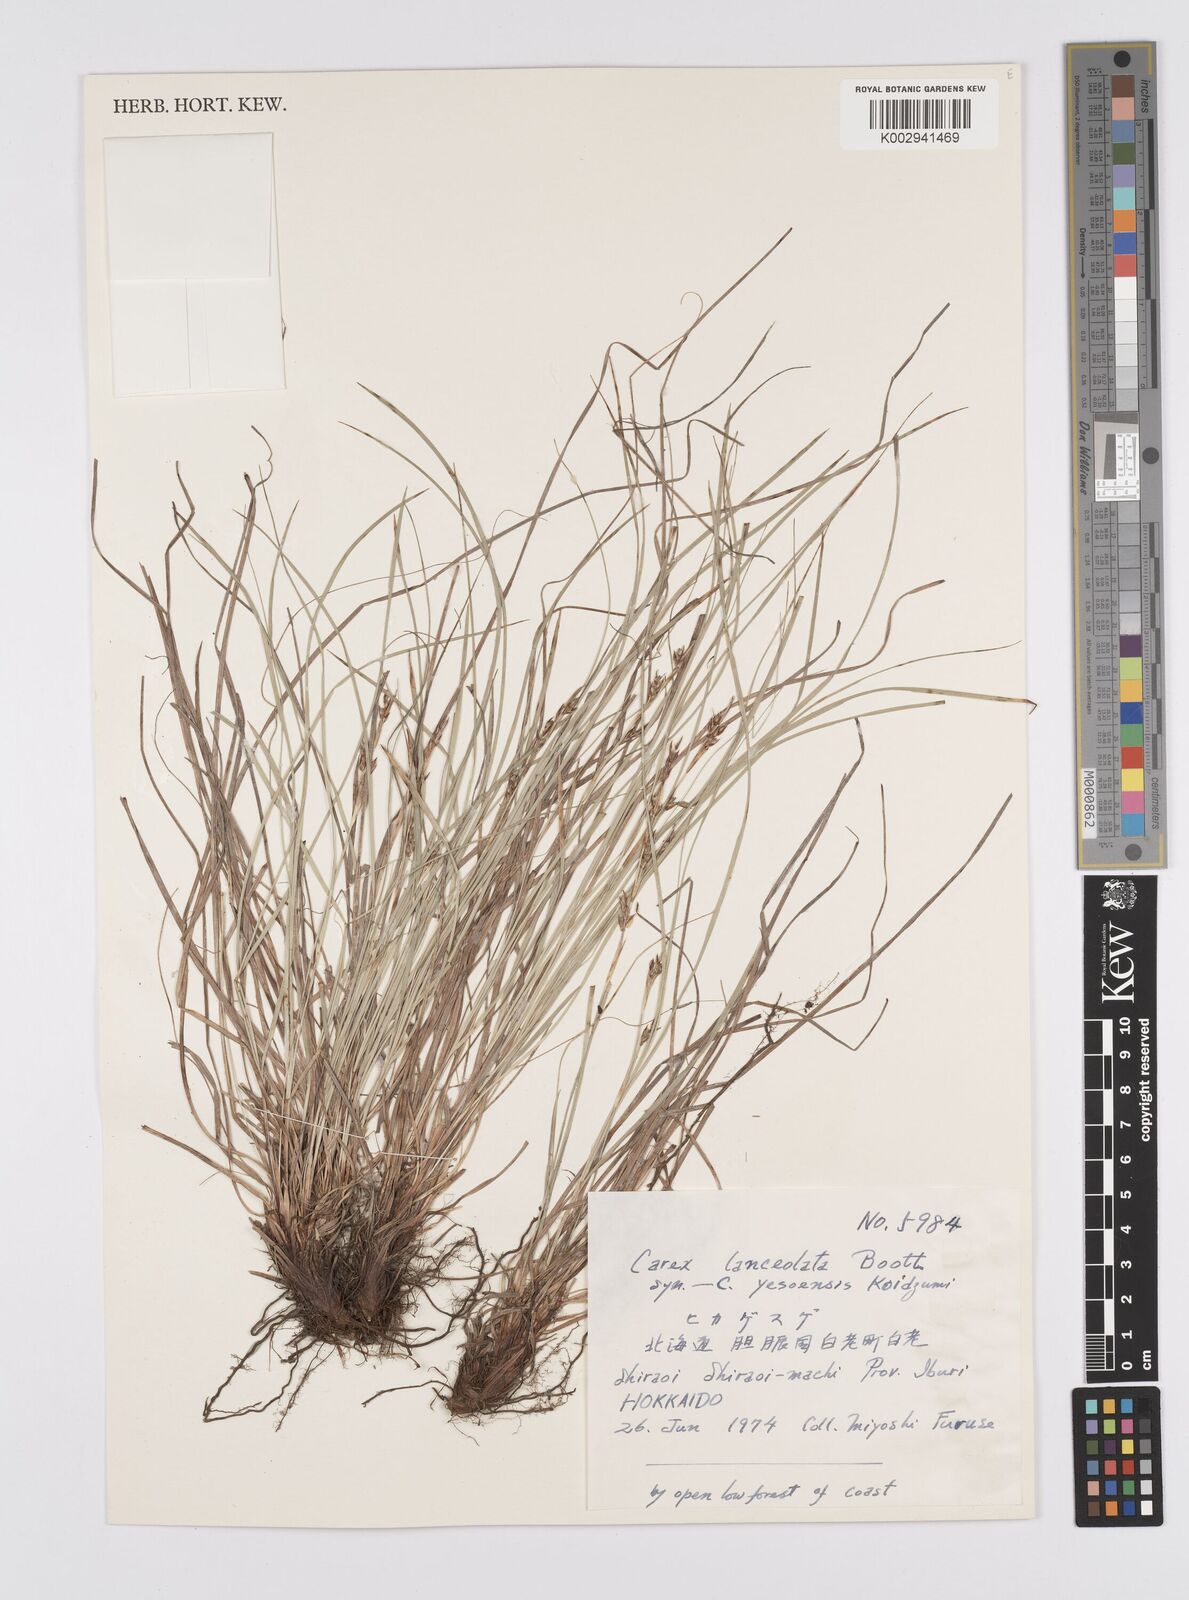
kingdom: Plantae
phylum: Tracheophyta
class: Liliopsida
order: Poales
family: Cyperaceae
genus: Carex
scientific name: Carex lanceolata
